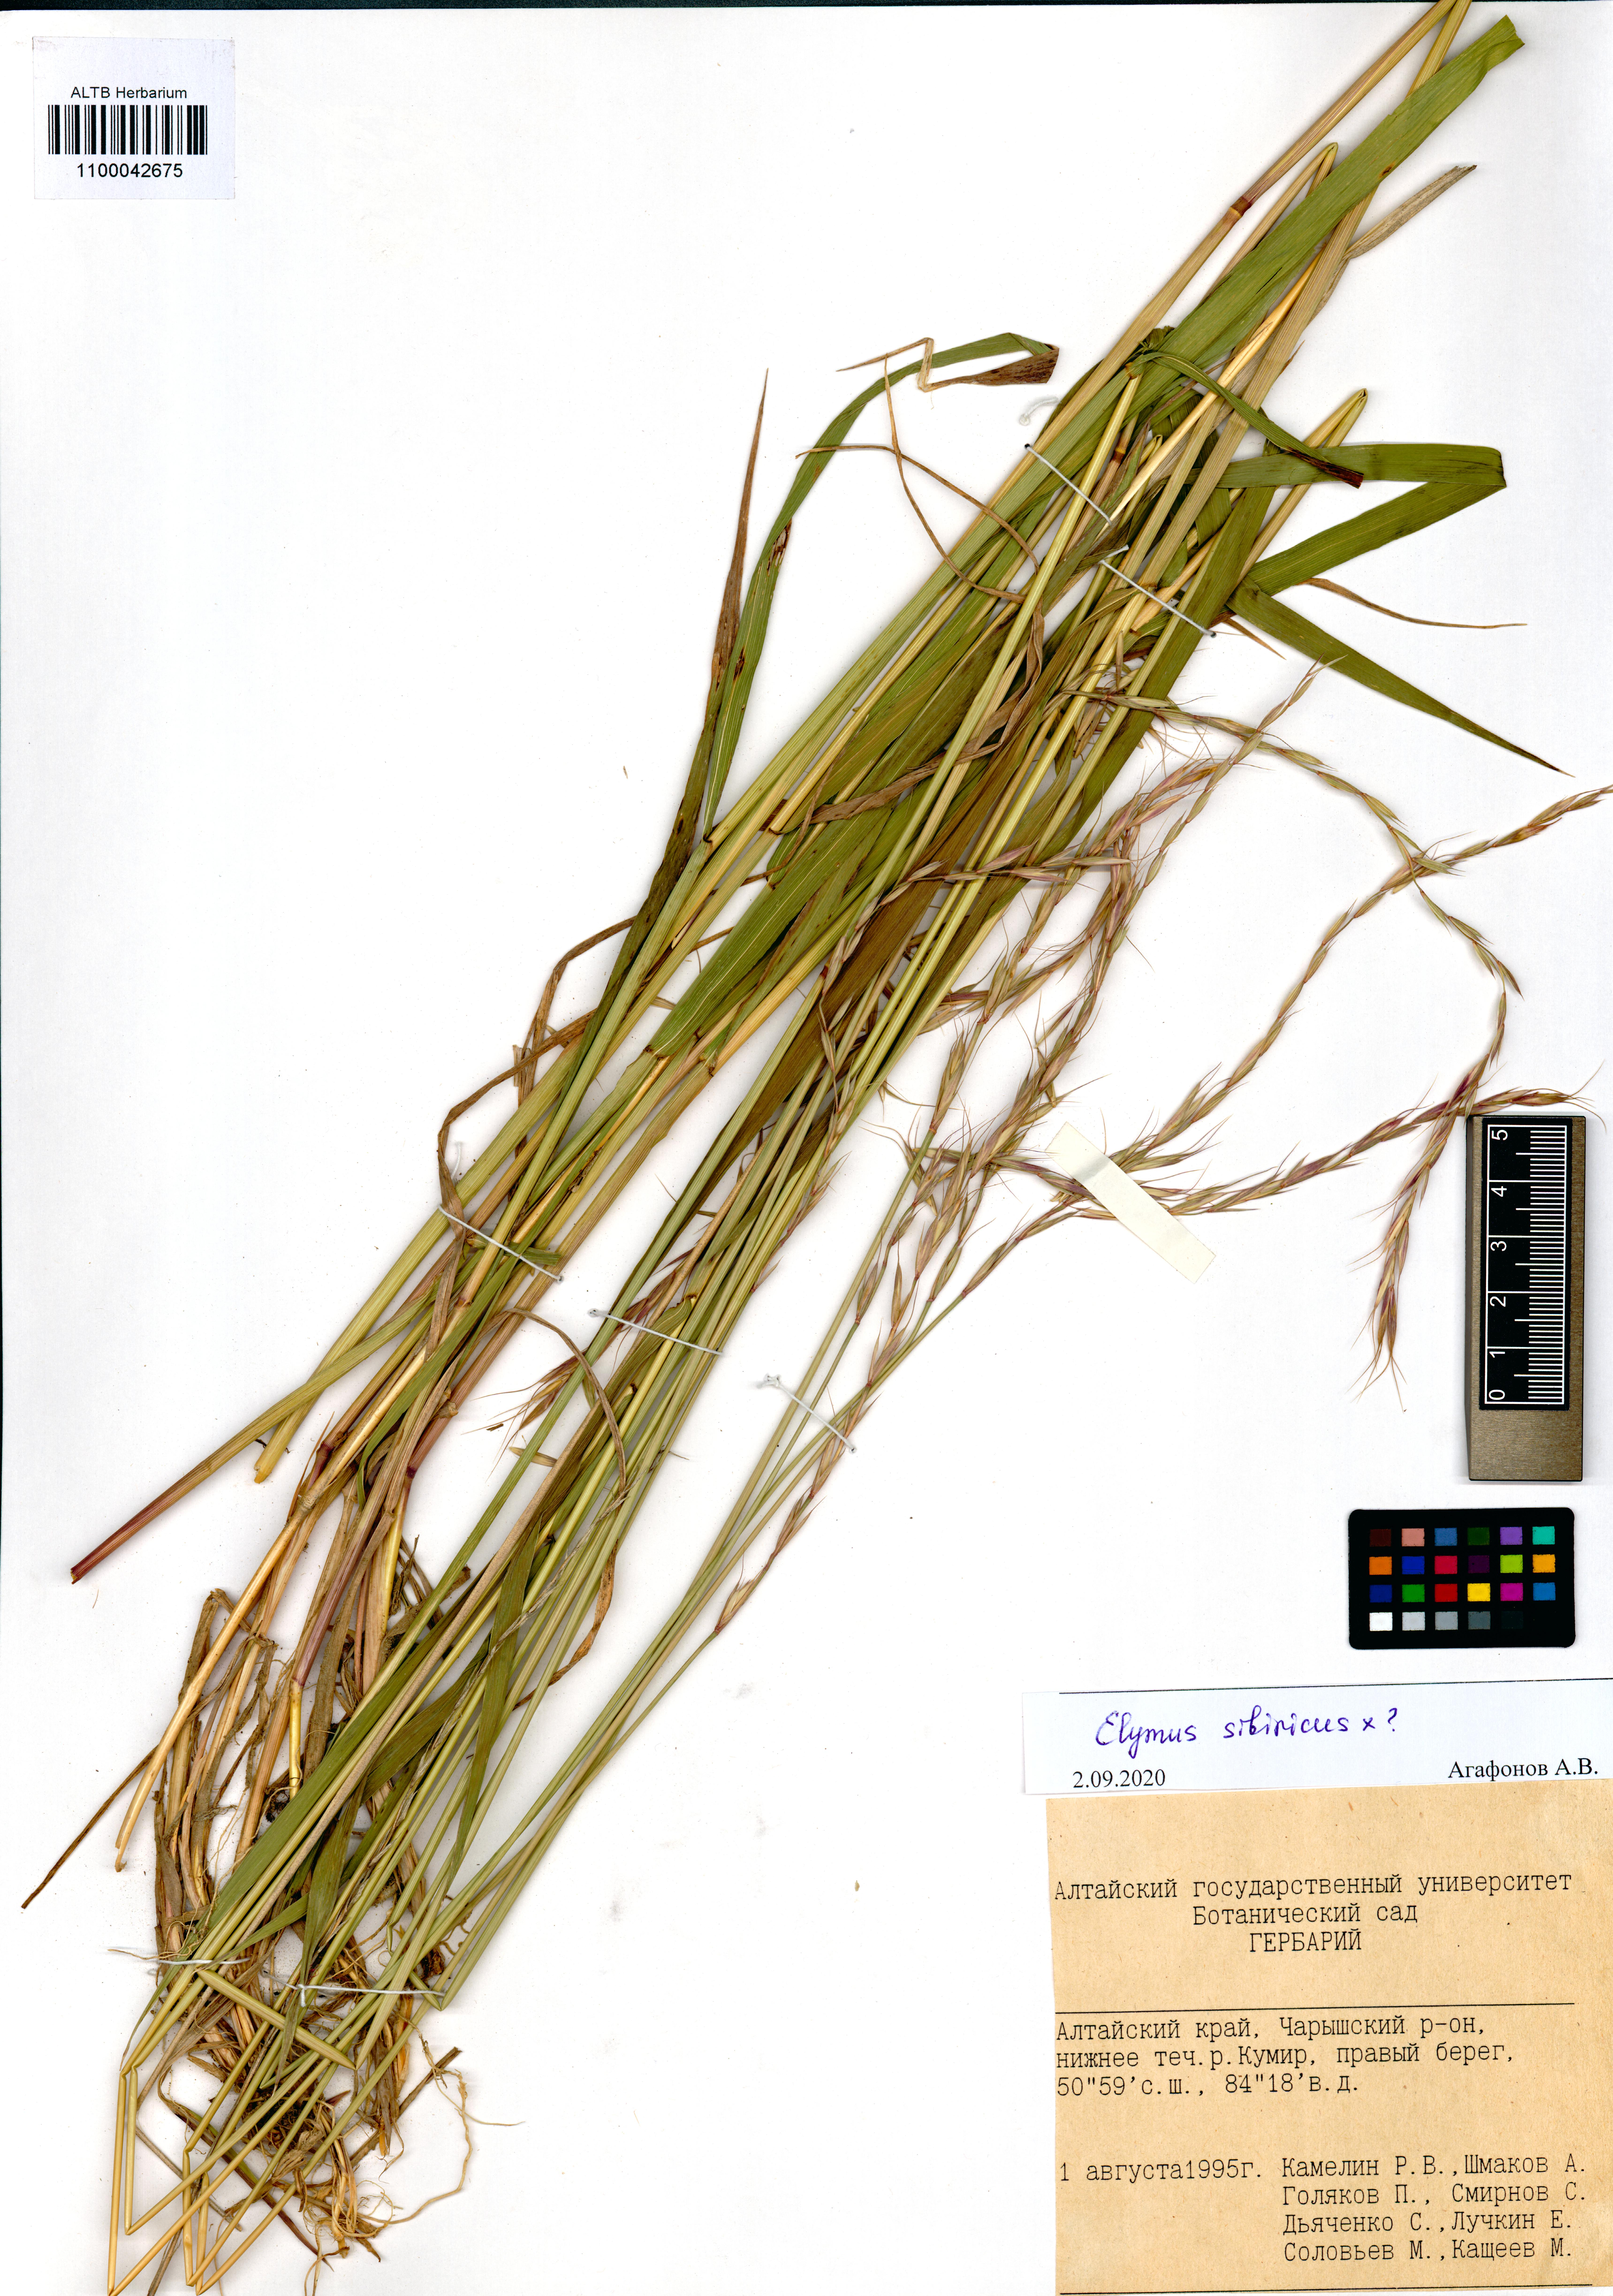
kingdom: Plantae
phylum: Tracheophyta
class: Liliopsida
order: Poales
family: Poaceae
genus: Elymus
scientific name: Elymus sibiricus
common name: Siberian wildrye
